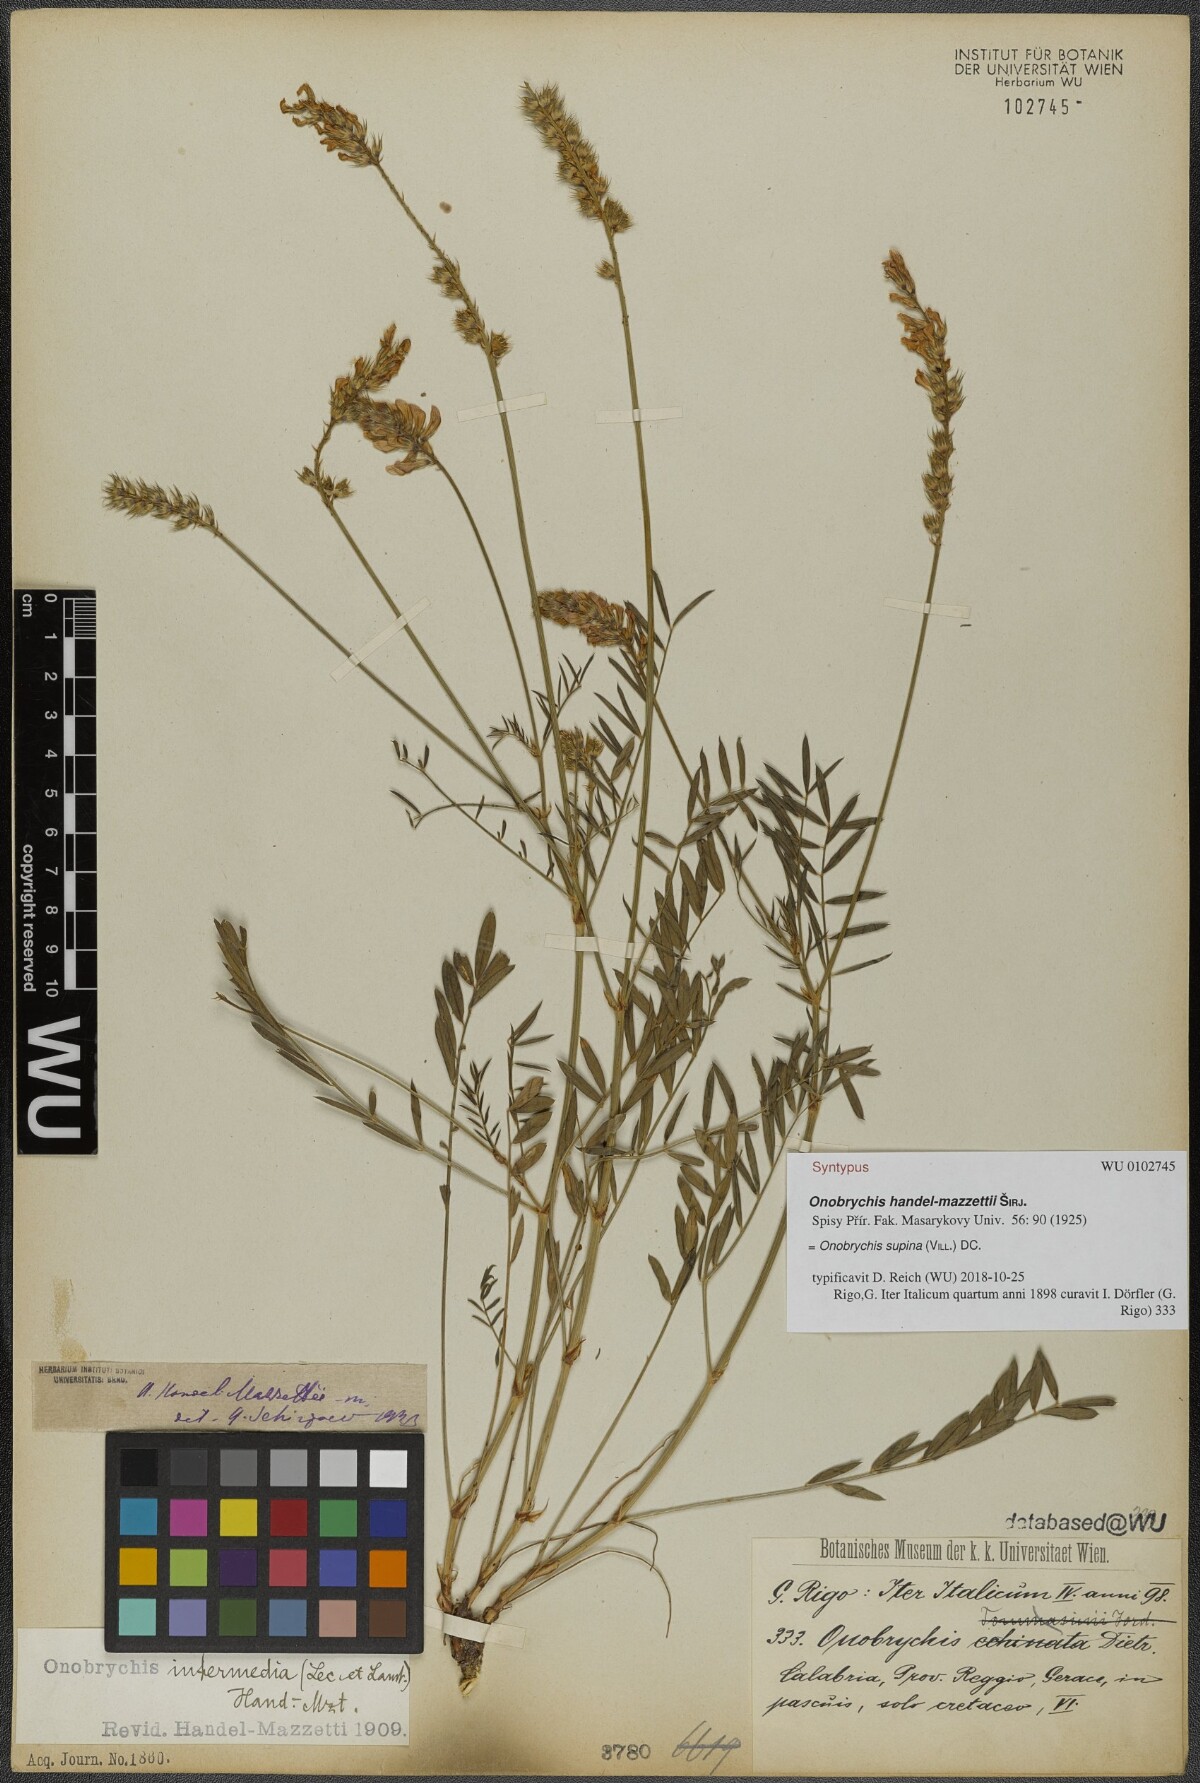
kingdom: Plantae
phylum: Tracheophyta
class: Magnoliopsida
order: Fabales
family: Fabaceae
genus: Onobrychis
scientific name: Onobrychis supina
